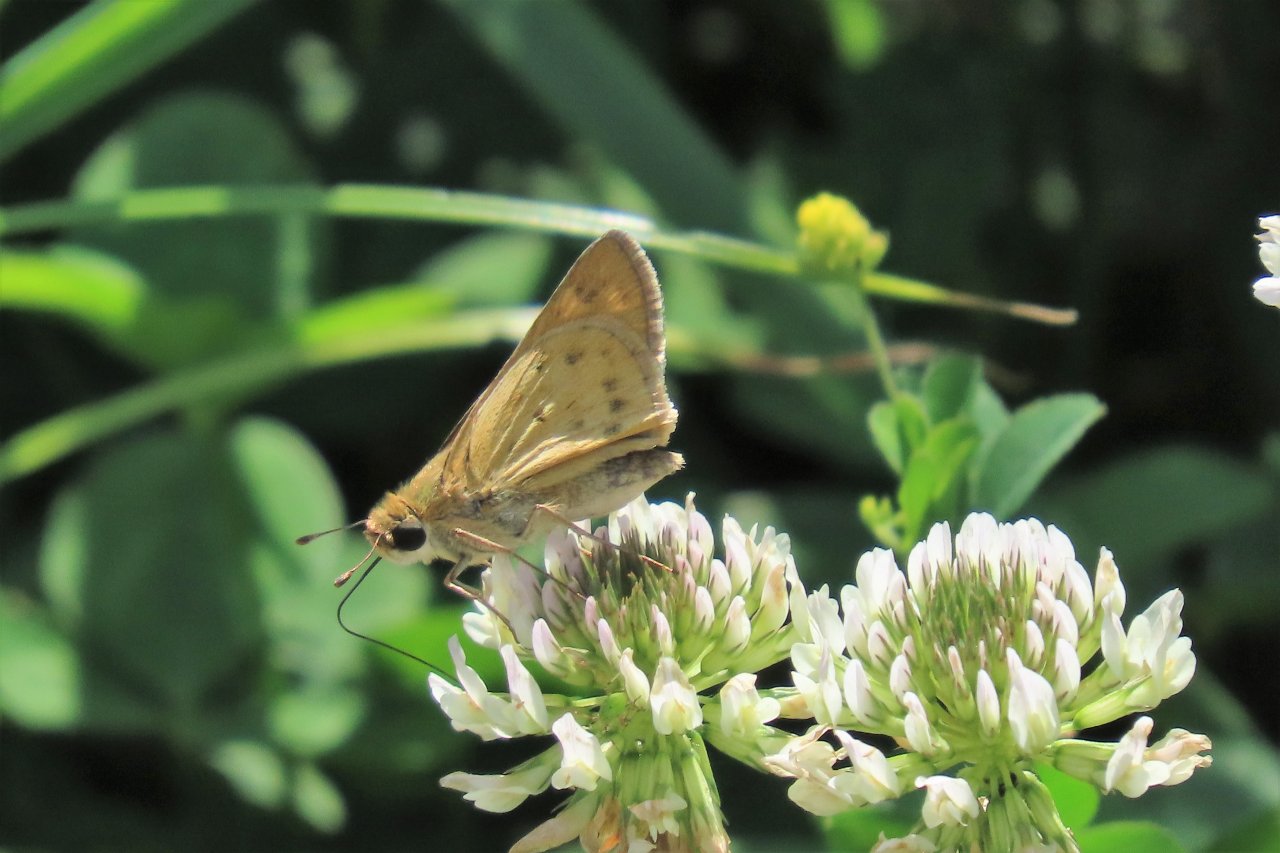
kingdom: Animalia
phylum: Arthropoda
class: Insecta
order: Lepidoptera
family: Hesperiidae
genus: Hylephila
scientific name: Hylephila phyleus
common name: Fiery Skipper
